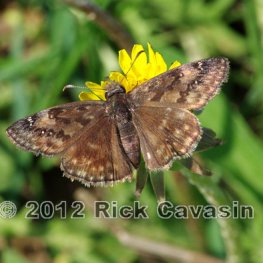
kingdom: Animalia
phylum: Arthropoda
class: Insecta
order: Lepidoptera
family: Hesperiidae
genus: Gesta
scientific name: Gesta
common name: Wild Indigo Duskywing
